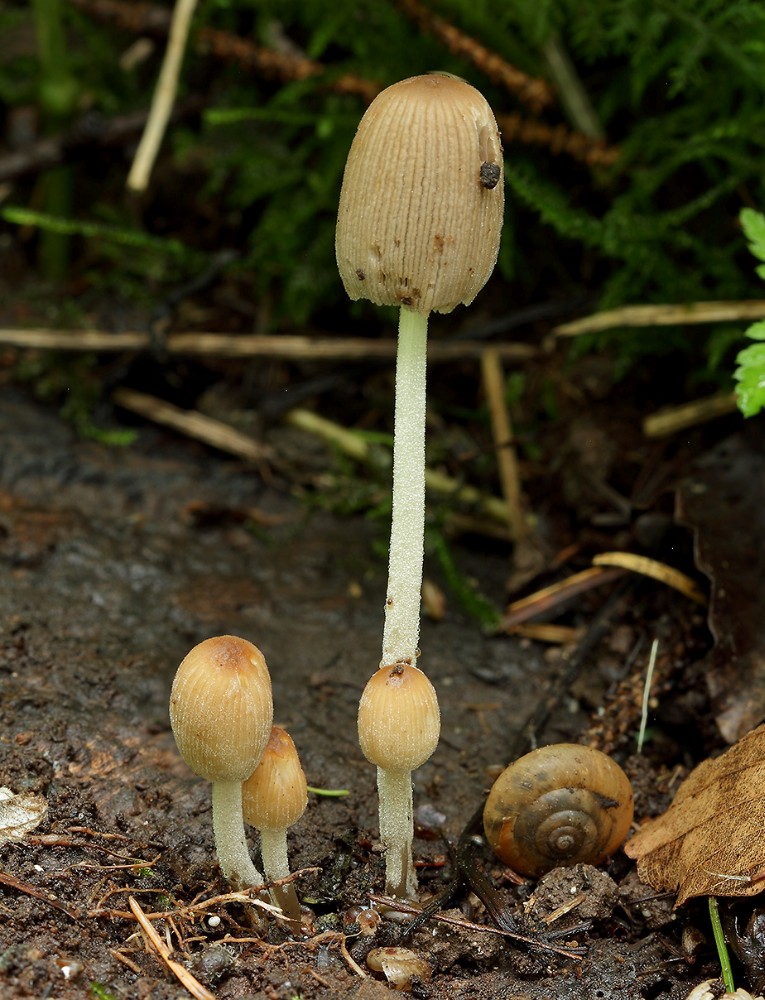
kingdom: Fungi
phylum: Basidiomycota
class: Agaricomycetes
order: Agaricales
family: Psathyrellaceae
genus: Coprinellus
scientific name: Coprinellus disseminatus
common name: bredsået blækhat
